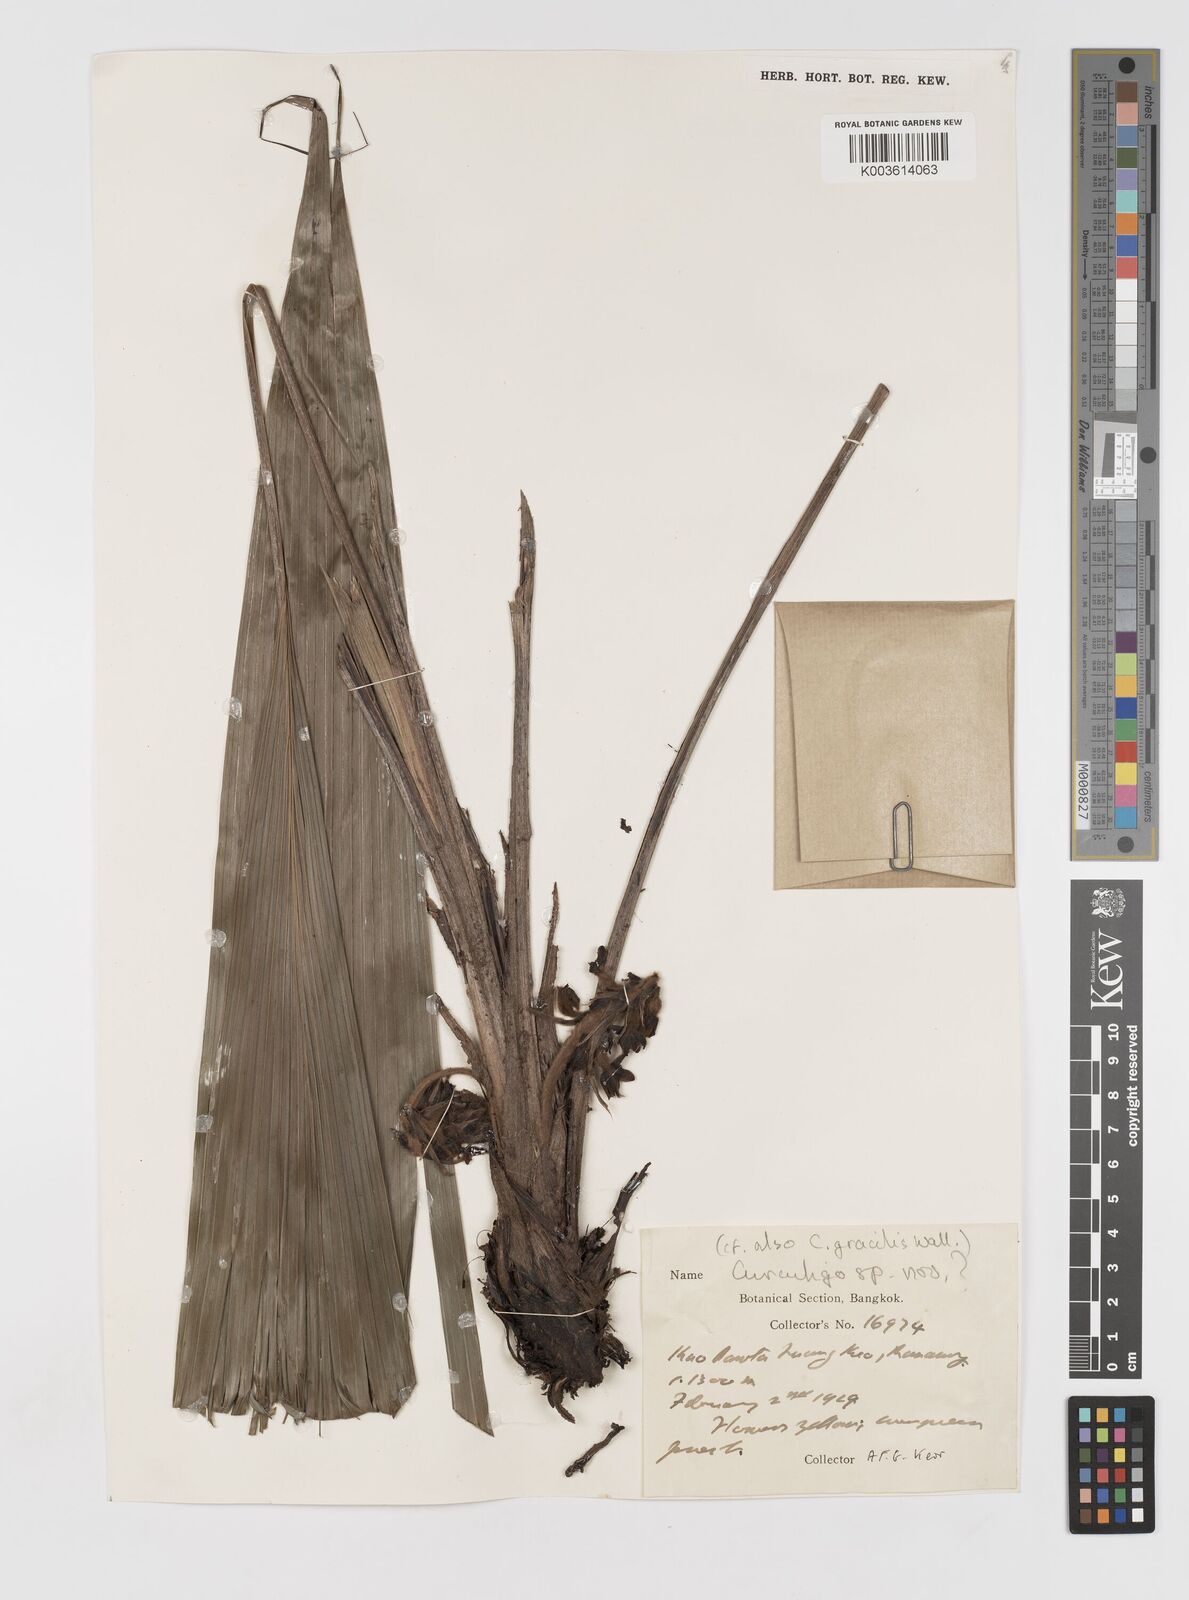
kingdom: Plantae
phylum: Tracheophyta
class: Liliopsida
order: Asparagales
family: Hypoxidaceae
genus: Curculigo
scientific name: Curculigo gracilis
